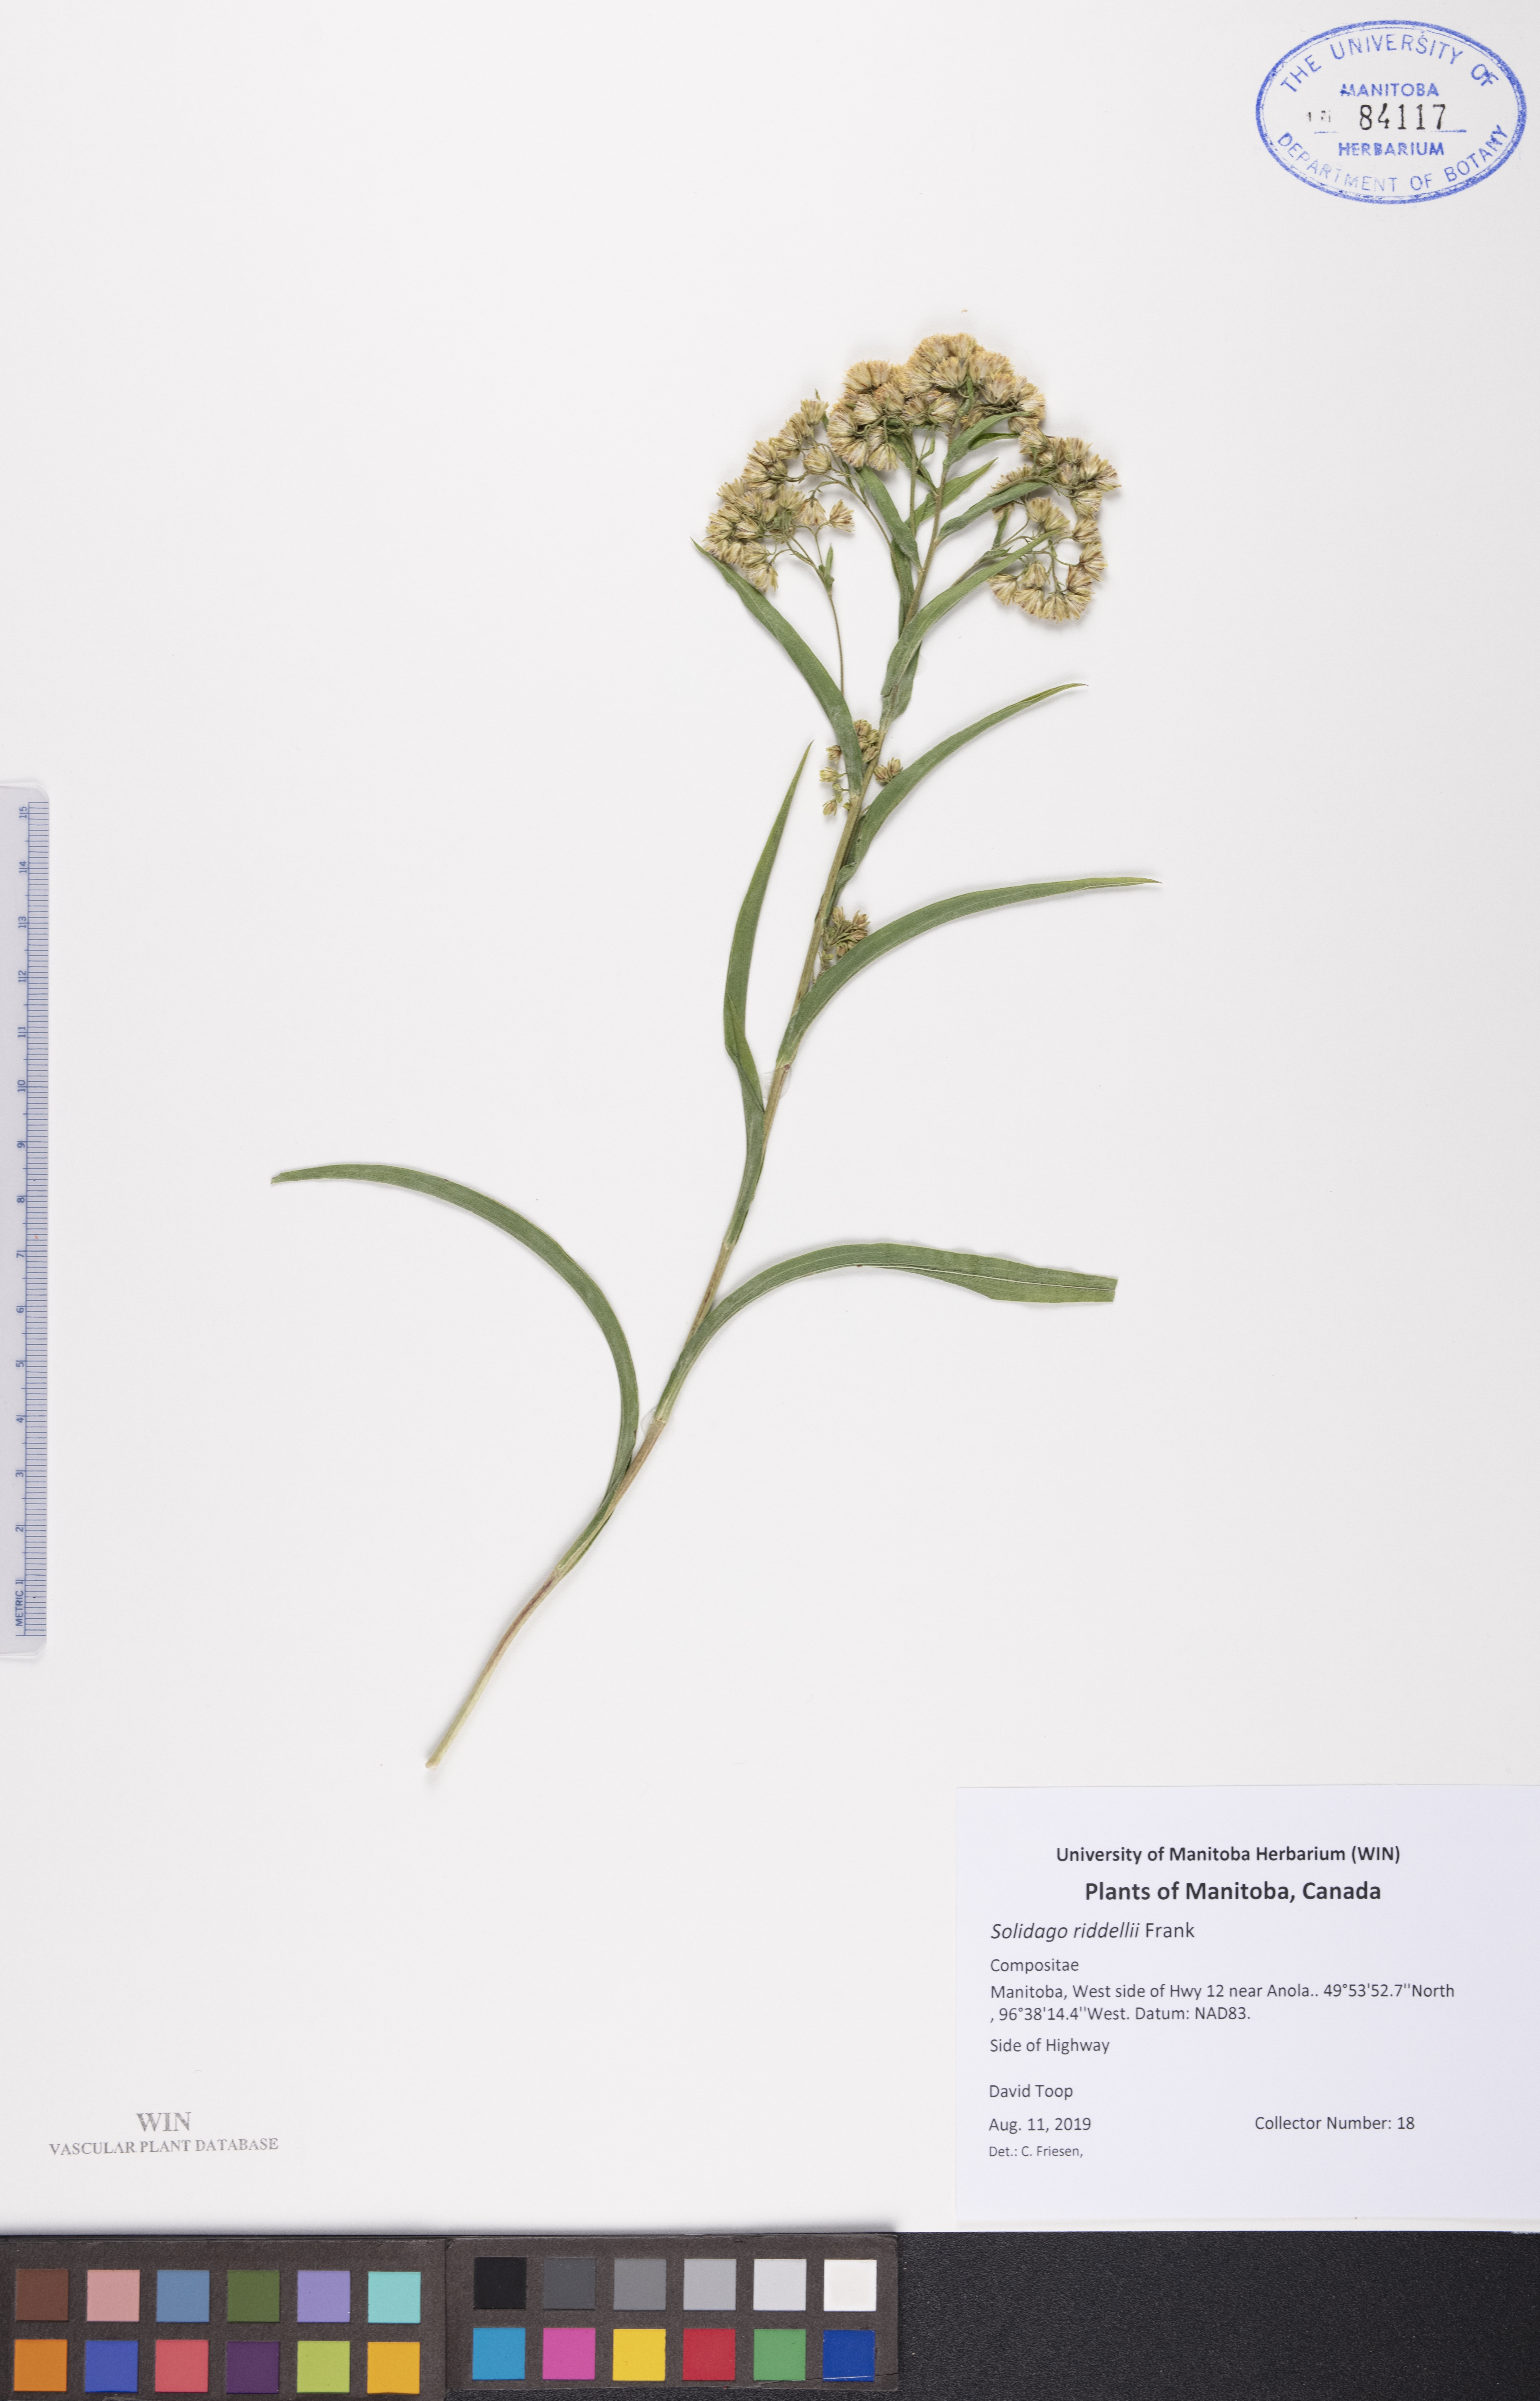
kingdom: Plantae
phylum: Tracheophyta
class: Magnoliopsida
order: Asterales
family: Asteraceae
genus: Solidago
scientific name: Solidago riddellii
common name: Riddell's goldenrod
